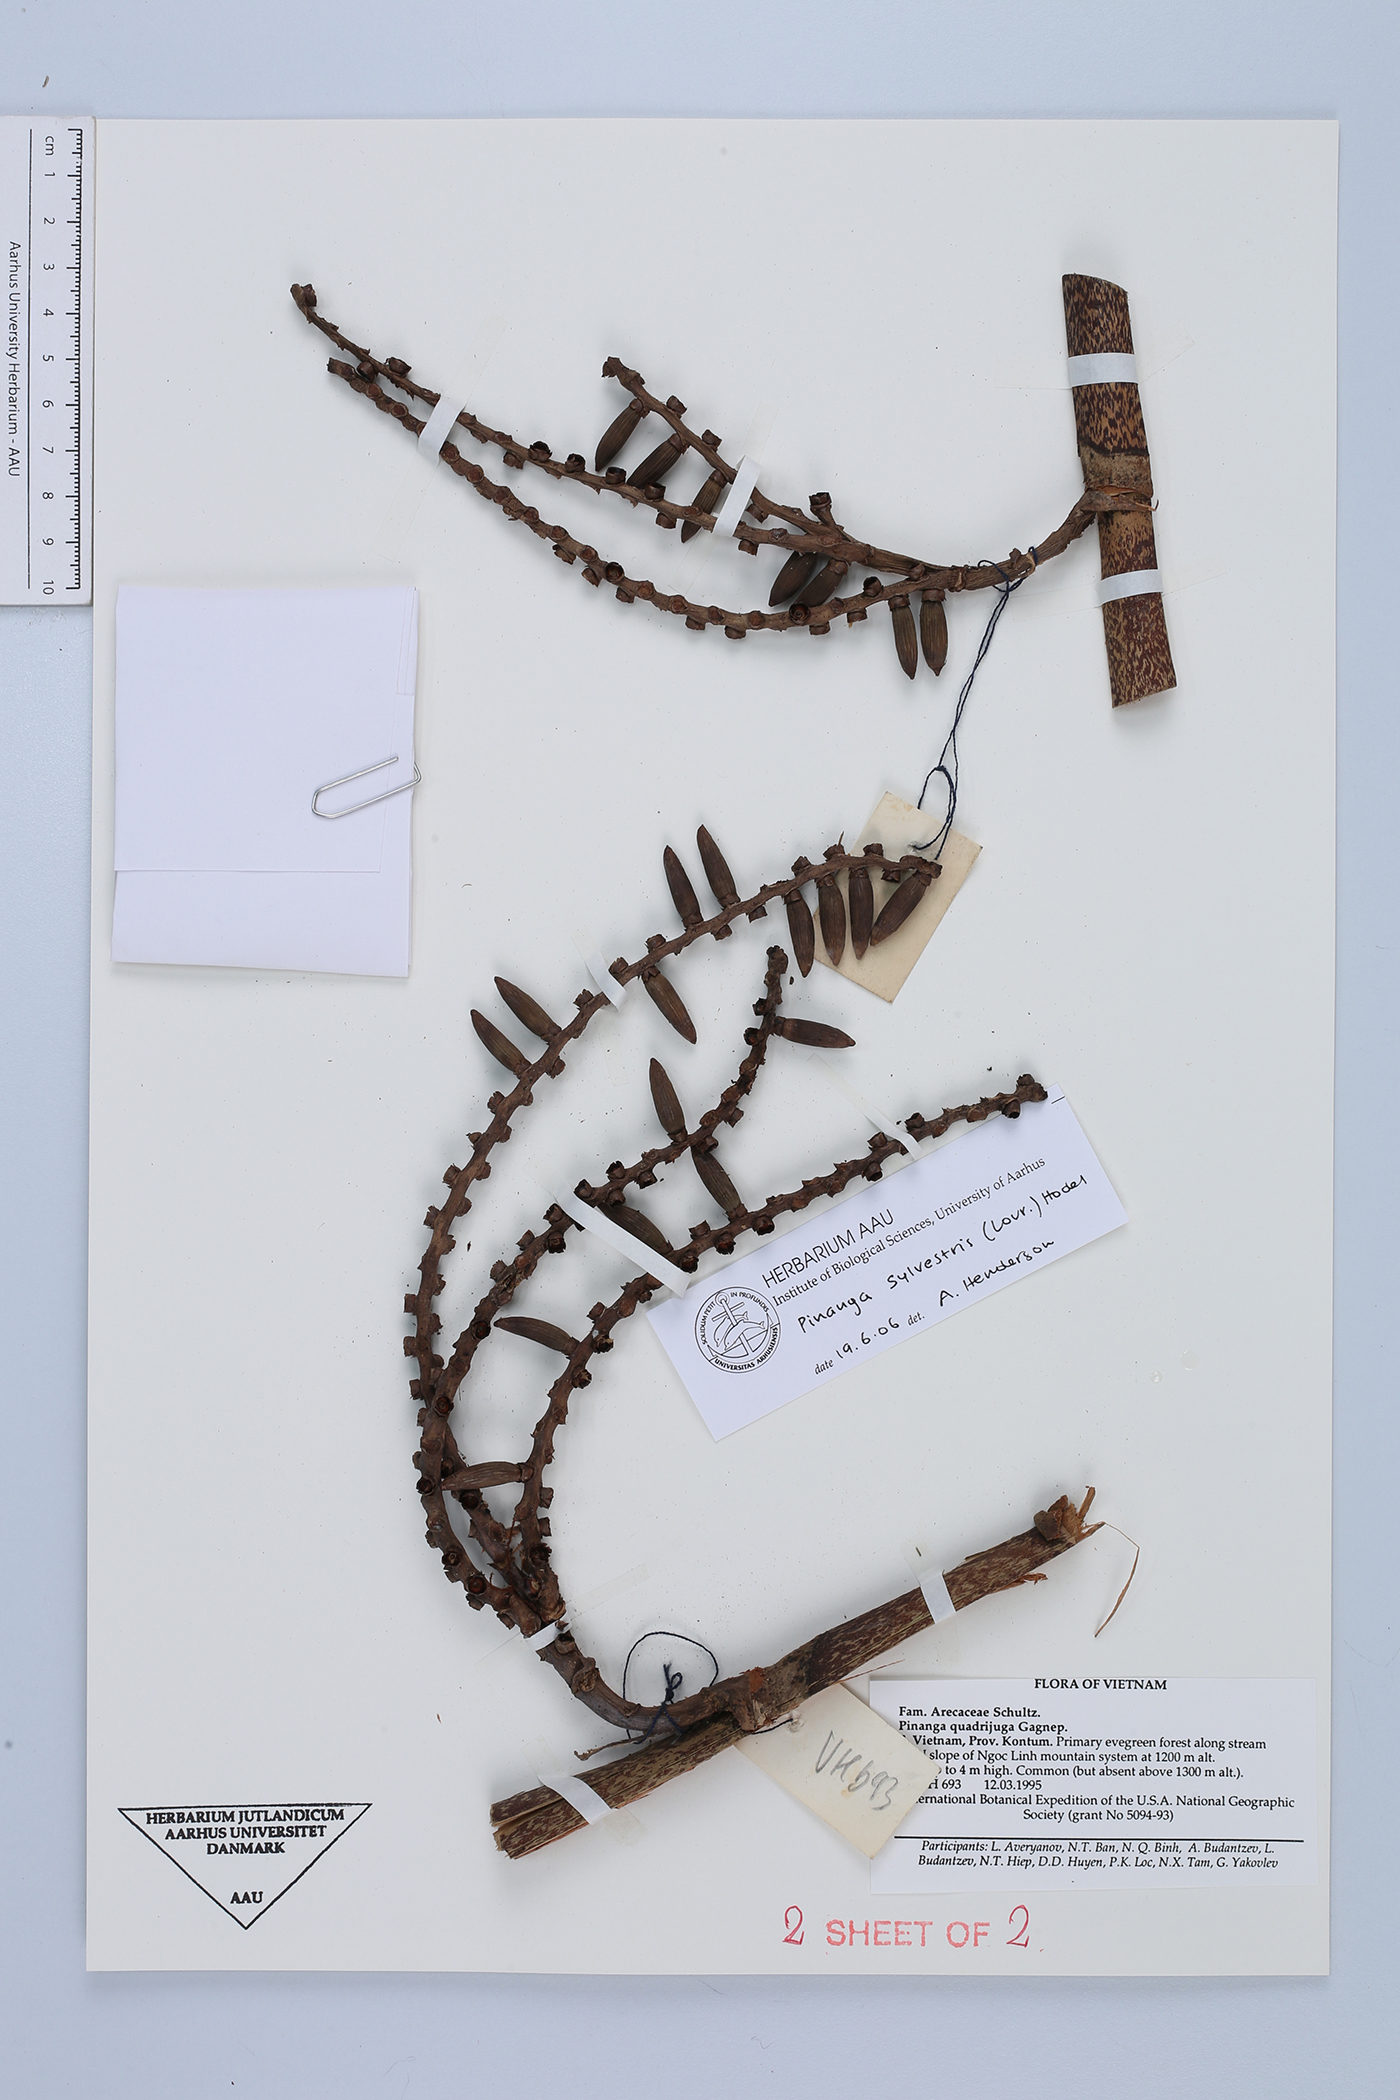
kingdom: Plantae
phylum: Tracheophyta
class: Liliopsida
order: Arecales
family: Arecaceae
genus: Pinanga
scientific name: Pinanga sylvestris
